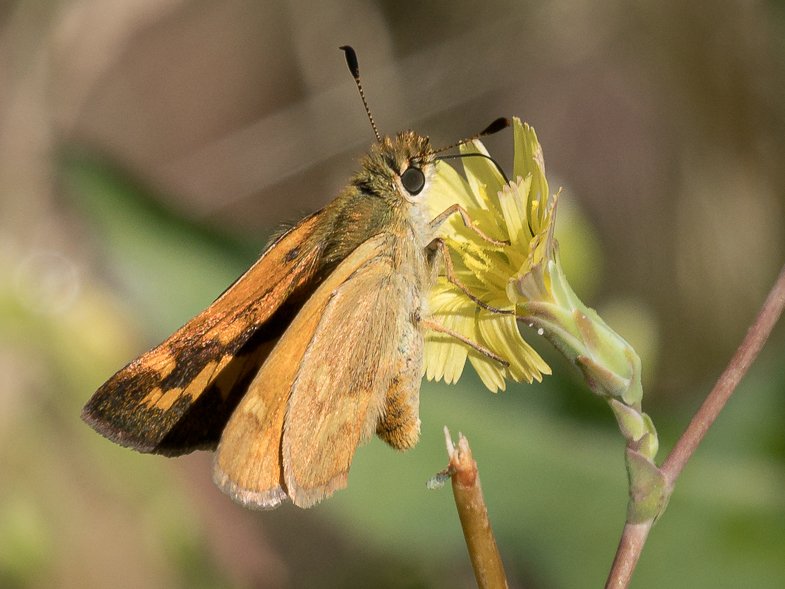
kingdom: Animalia
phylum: Arthropoda
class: Insecta
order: Lepidoptera
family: Hesperiidae
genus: Ochlodes
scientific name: Ochlodes sylvanoides
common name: Woodland Skipper
